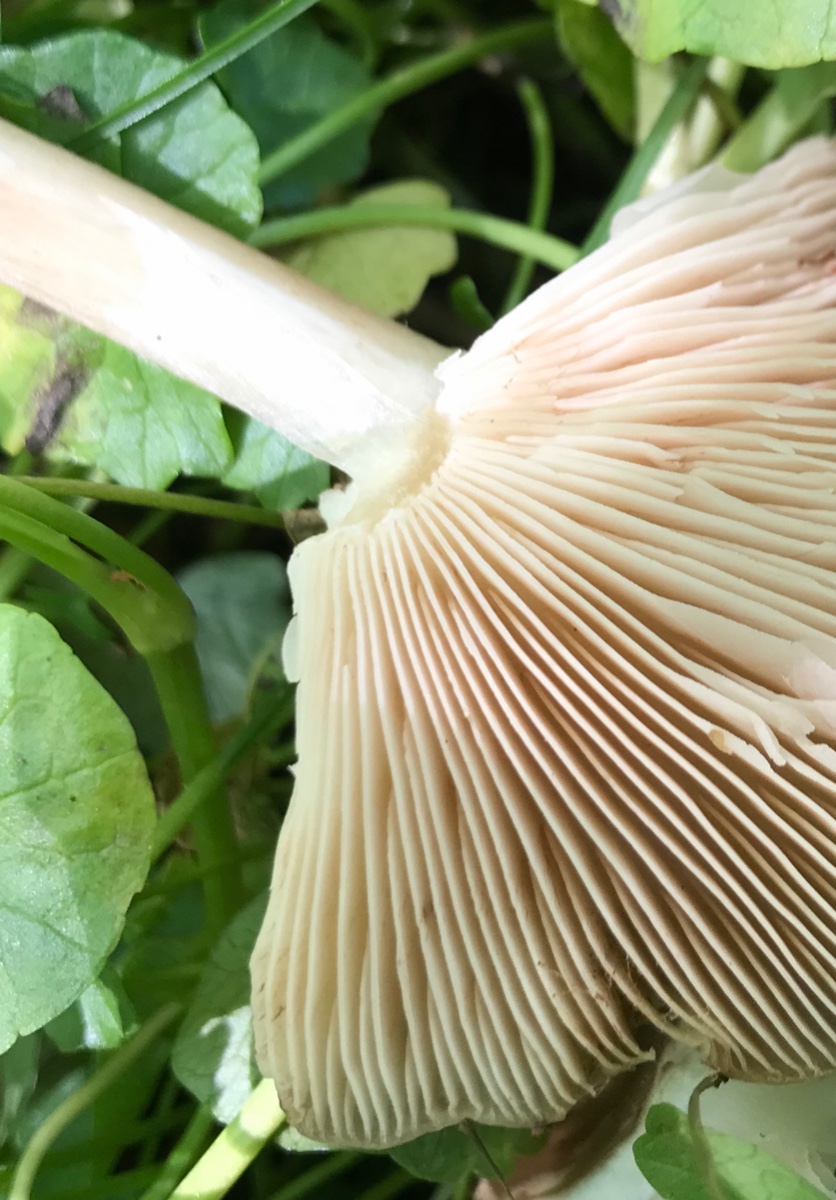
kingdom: Fungi
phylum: Basidiomycota
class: Agaricomycetes
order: Agaricales
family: Pluteaceae
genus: Pluteus
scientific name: Pluteus
